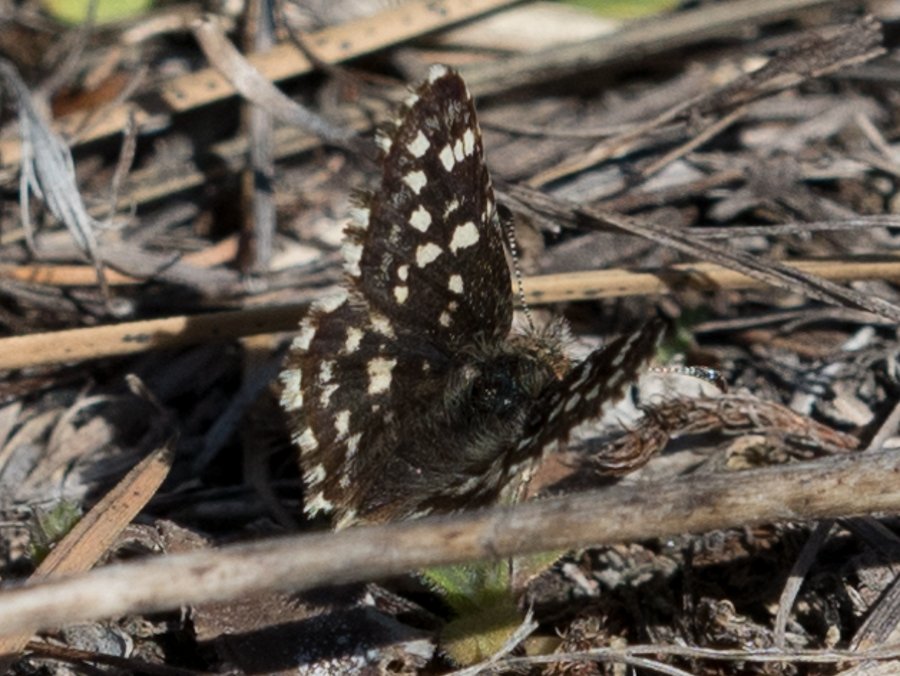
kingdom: Animalia
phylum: Arthropoda
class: Insecta
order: Lepidoptera
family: Hesperiidae
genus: Pyrgus
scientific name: Pyrgus ruralis
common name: Two-banded Checkered-Skipper
